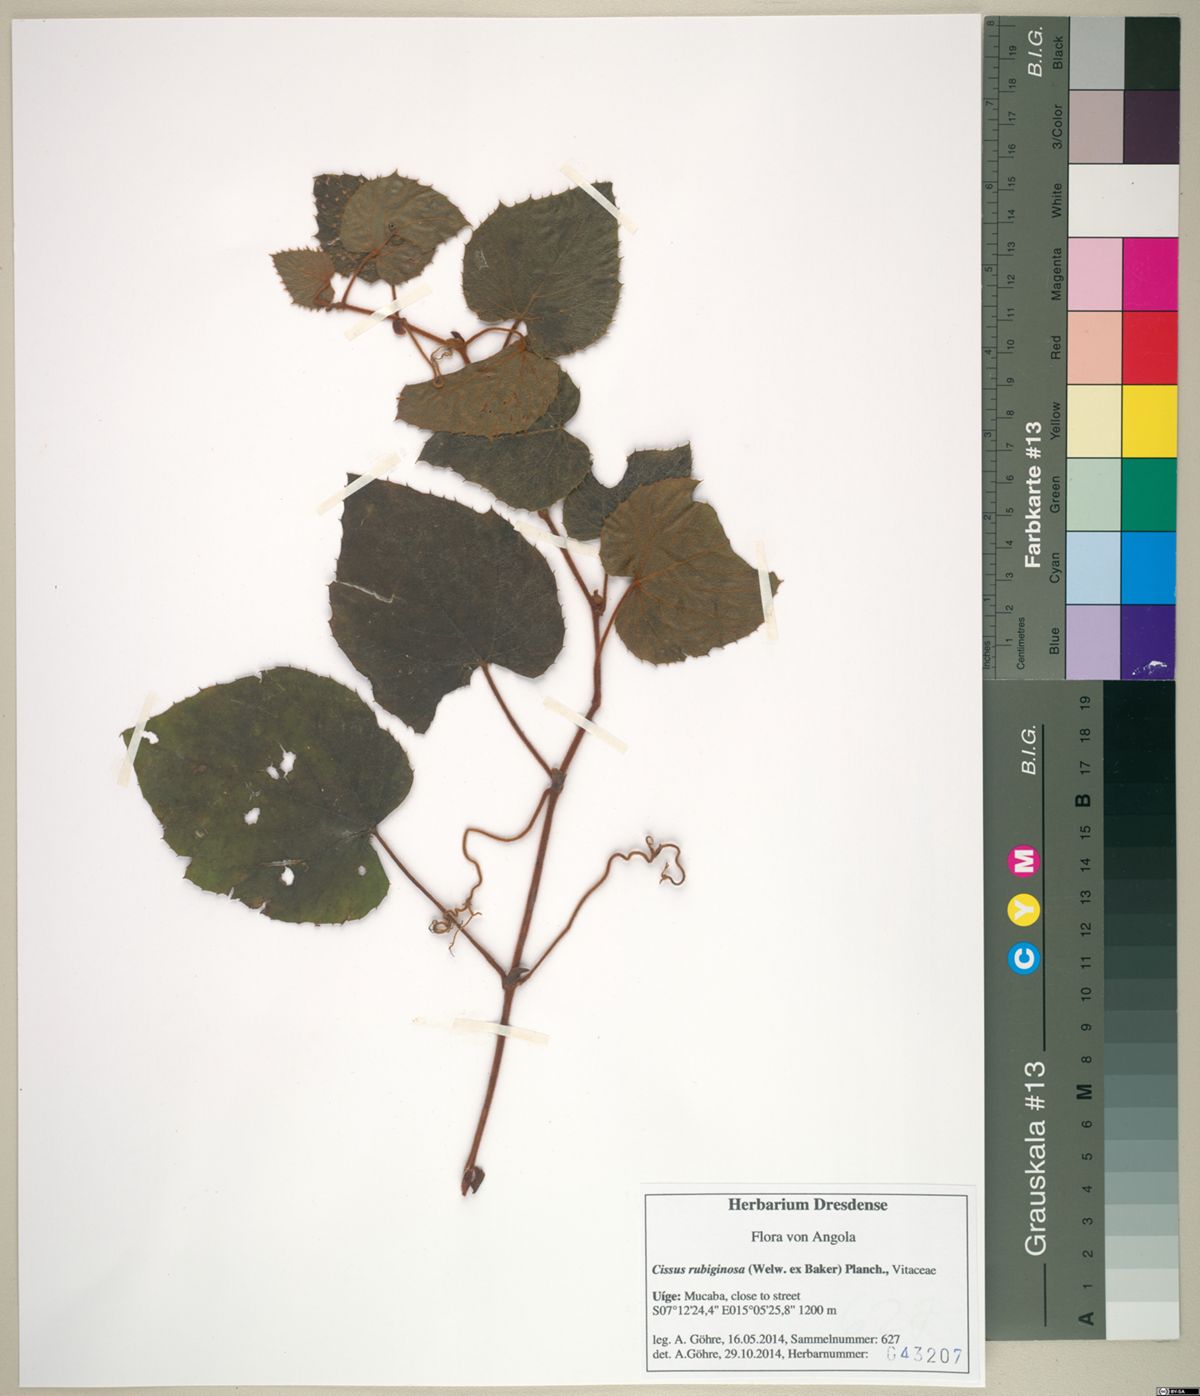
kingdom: Plantae
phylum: Tracheophyta
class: Magnoliopsida
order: Vitales
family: Vitaceae
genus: Cissus
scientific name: Cissus rubiginosa
